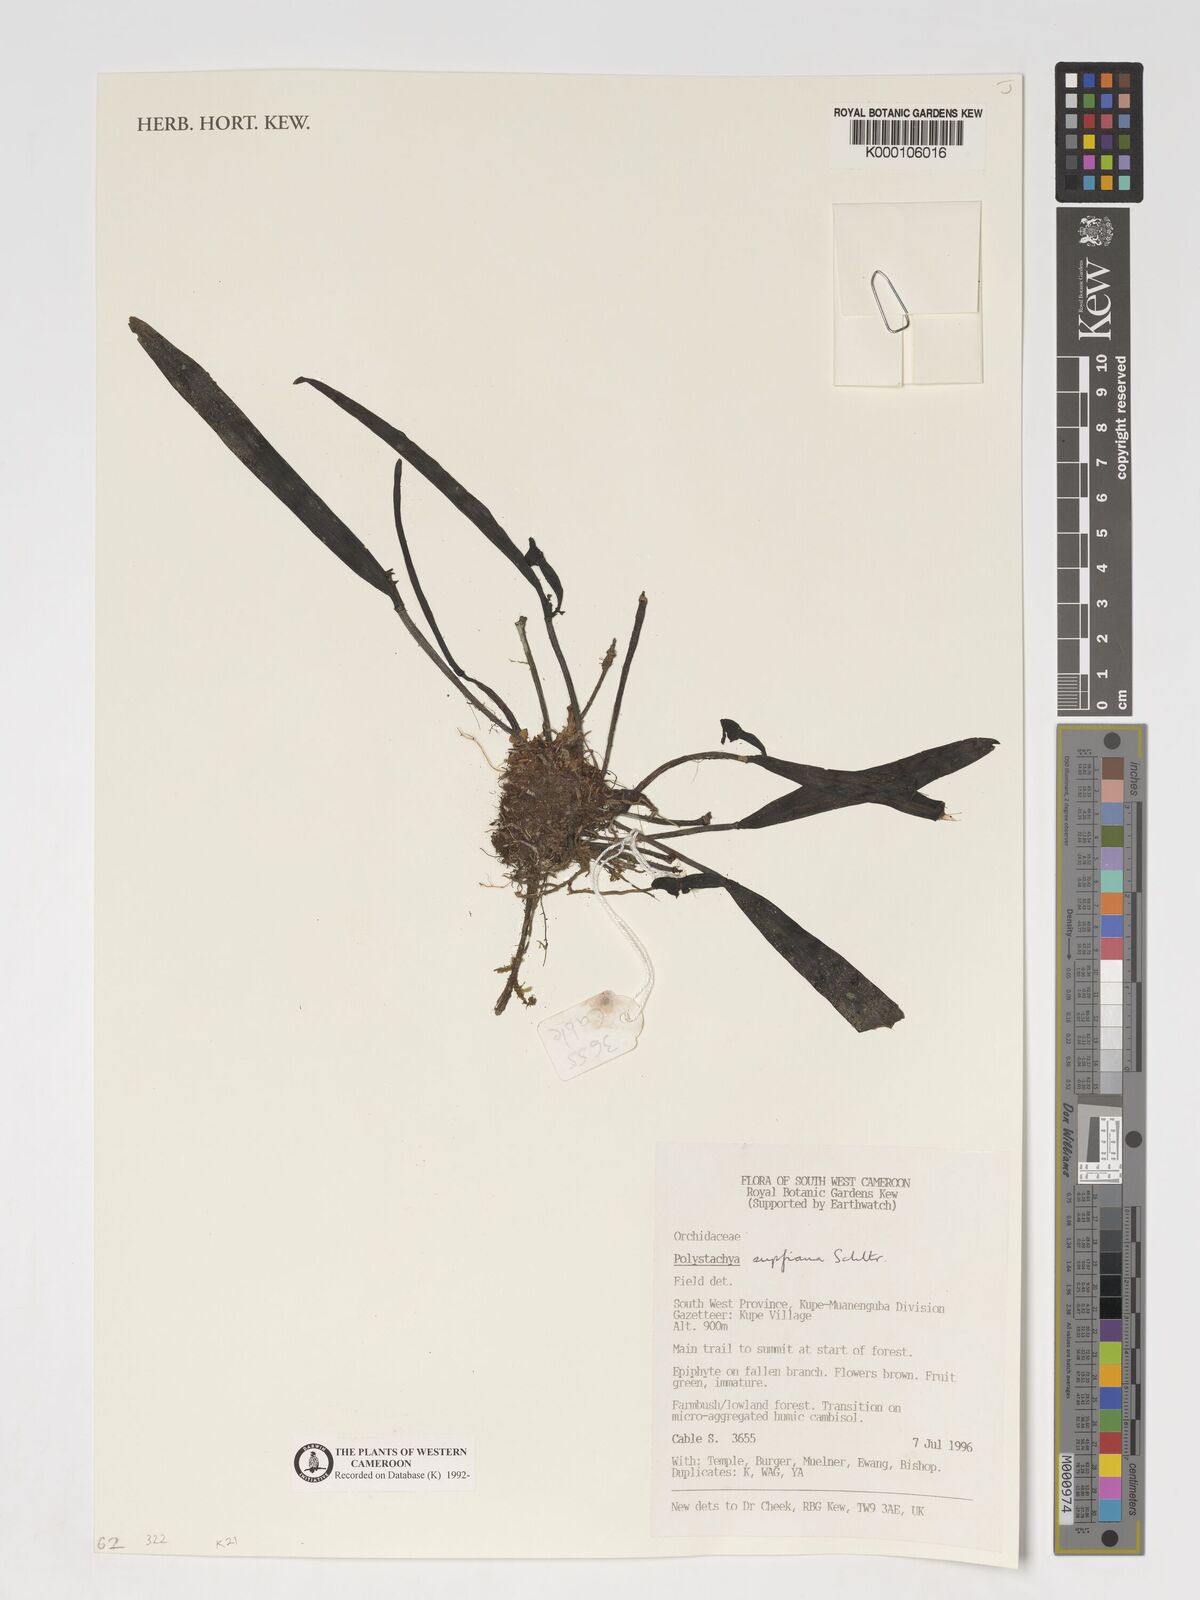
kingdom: Plantae
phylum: Tracheophyta
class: Liliopsida
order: Asparagales
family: Orchidaceae
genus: Polystachya
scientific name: Polystachya supfiana
